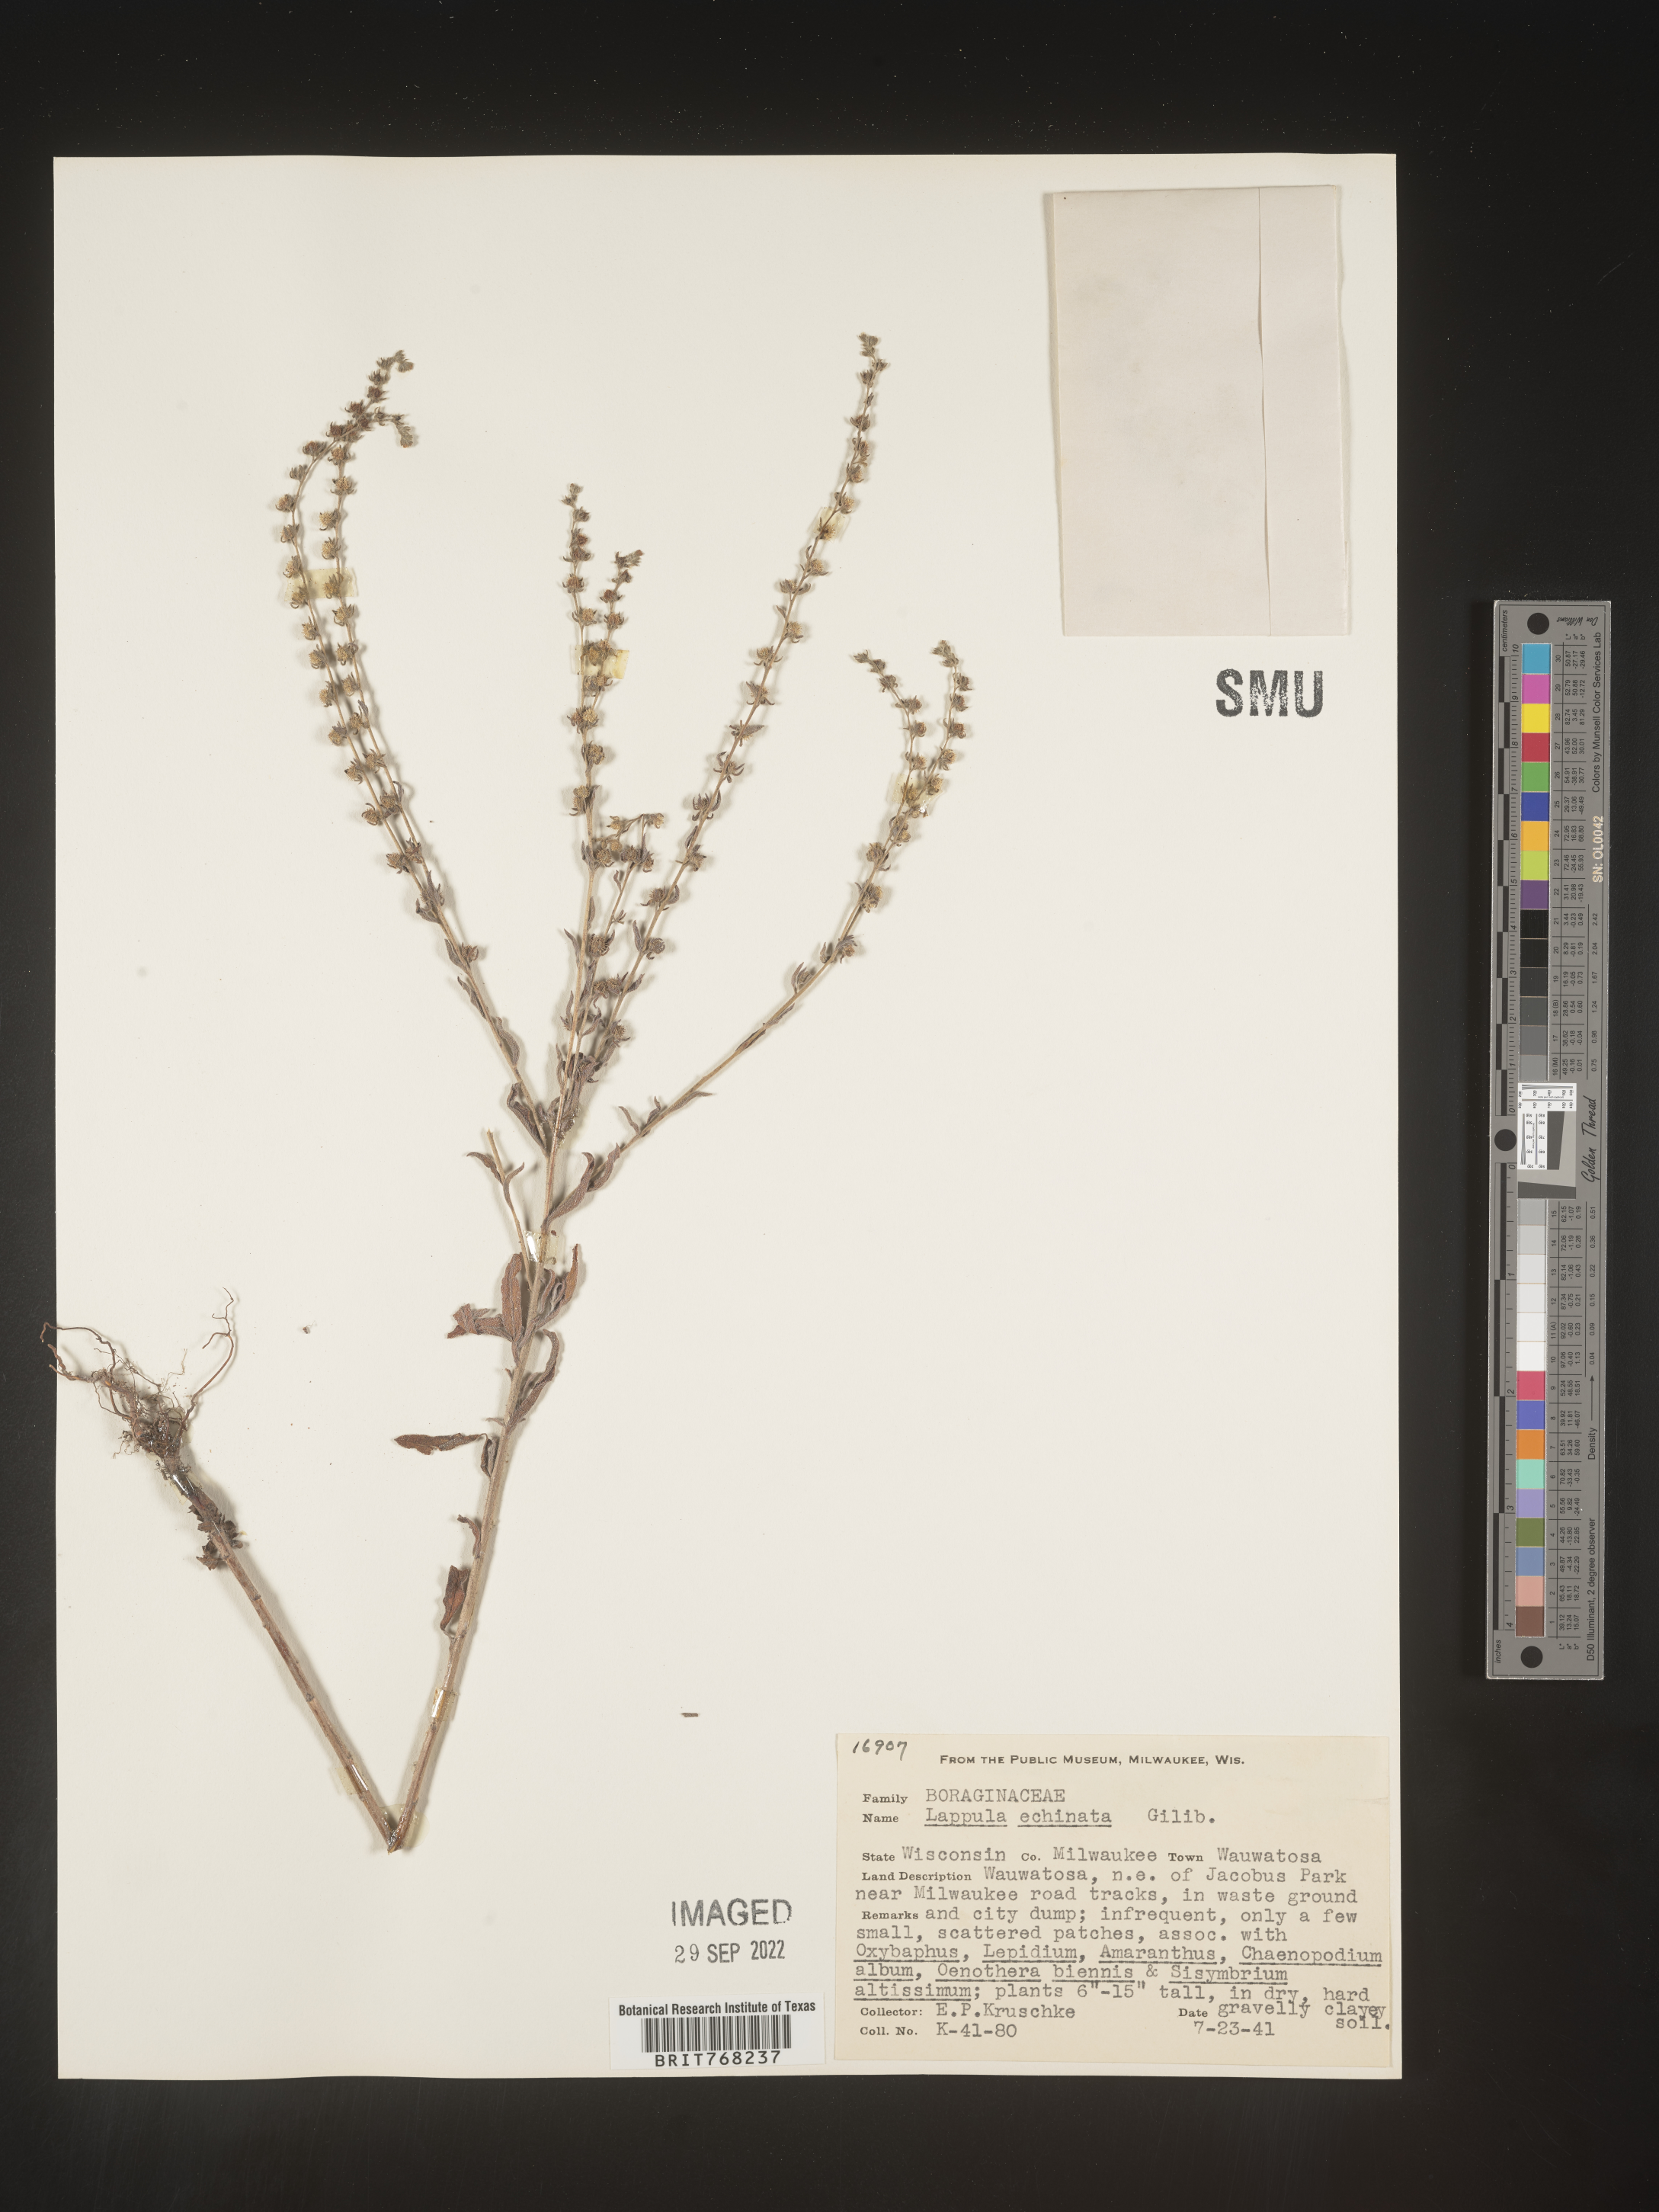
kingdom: Plantae
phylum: Tracheophyta
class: Magnoliopsida
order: Boraginales
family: Boraginaceae
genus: Lappula
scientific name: Lappula
